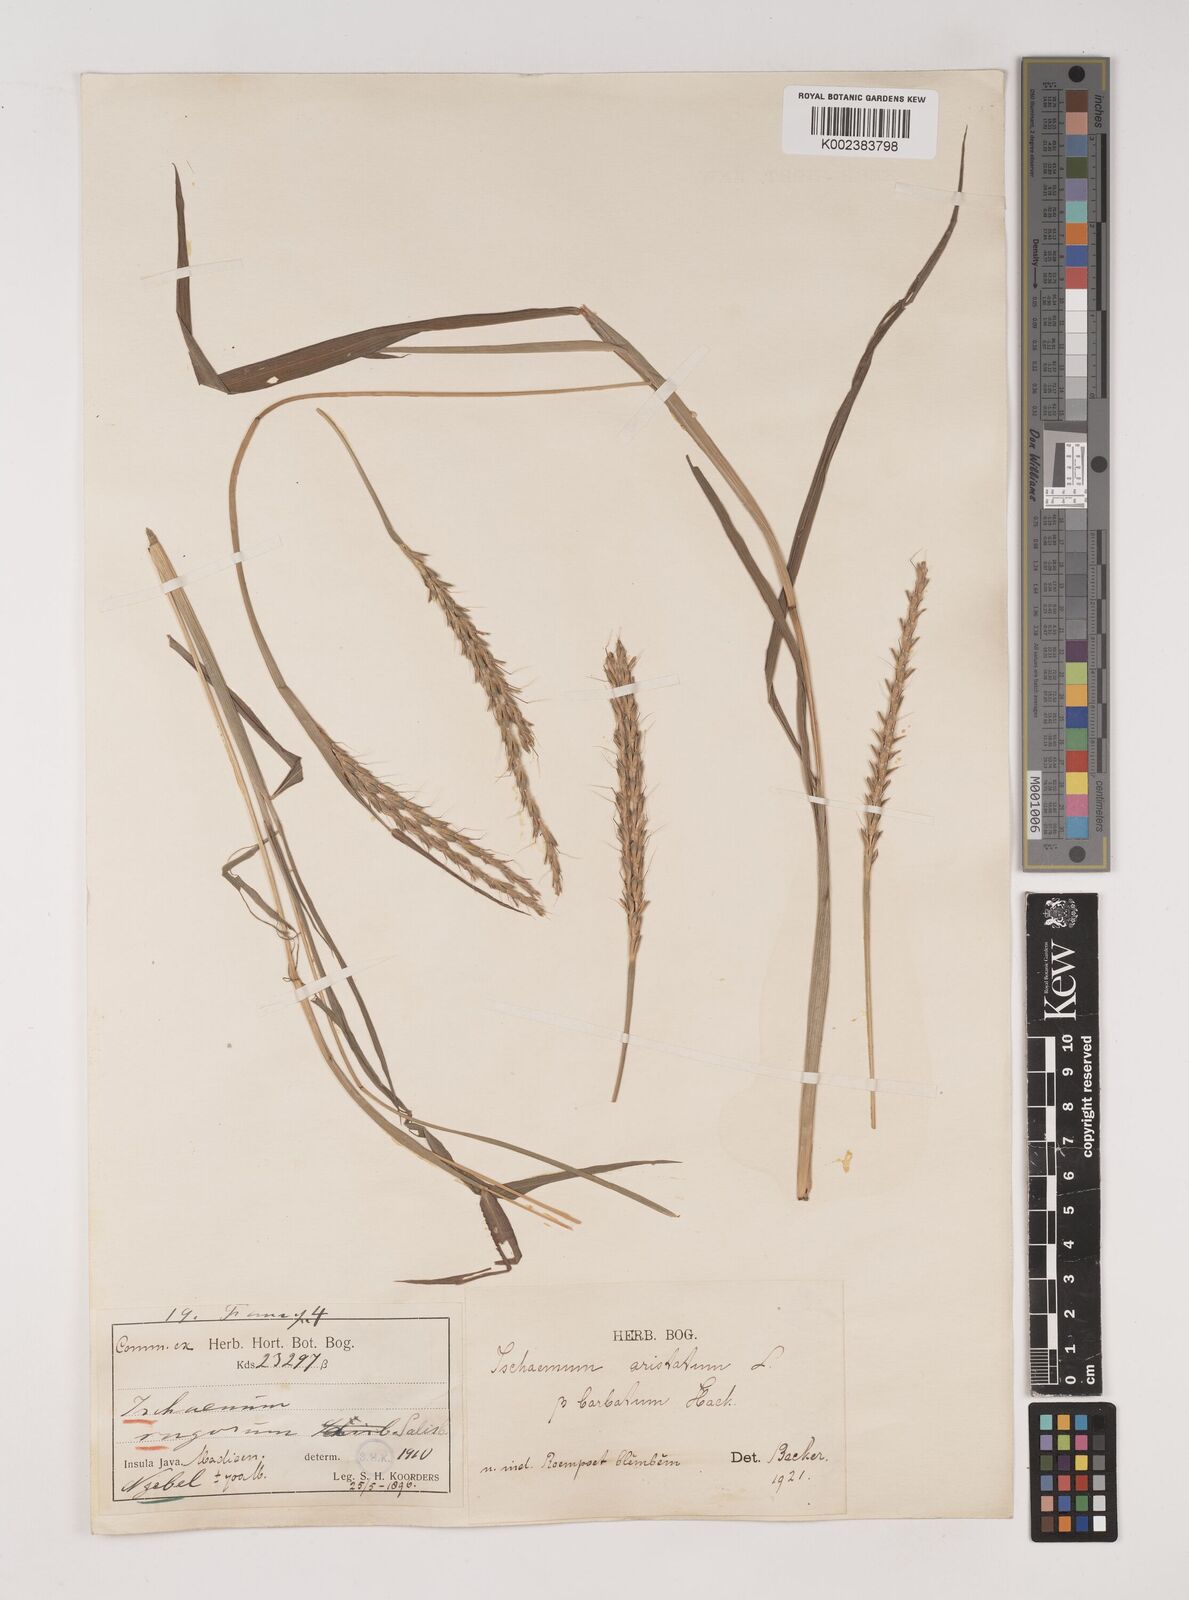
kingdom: Plantae
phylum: Tracheophyta
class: Liliopsida
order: Poales
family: Poaceae
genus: Ischaemum
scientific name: Ischaemum barbatum
